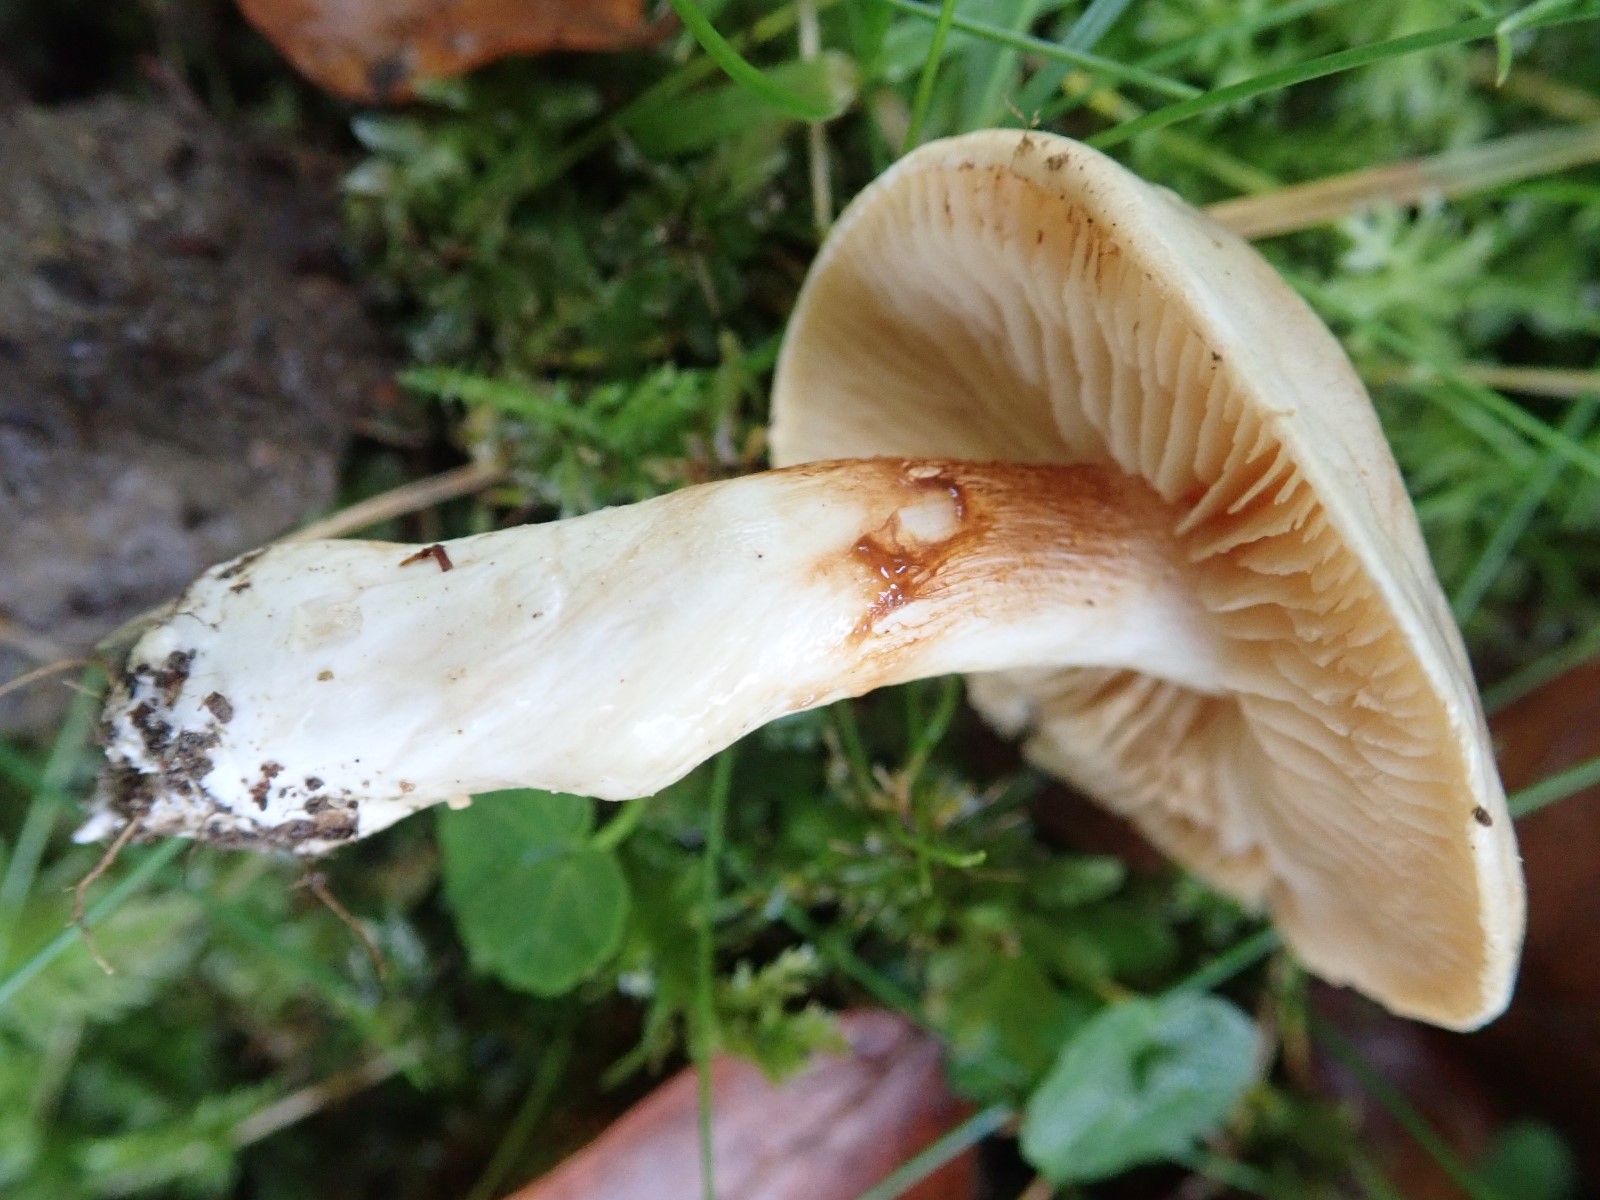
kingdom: Fungi
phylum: Basidiomycota
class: Agaricomycetes
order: Agaricales
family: Cortinariaceae
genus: Thaxterogaster
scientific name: Thaxterogaster leucoluteolus
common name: isabella slørhat
